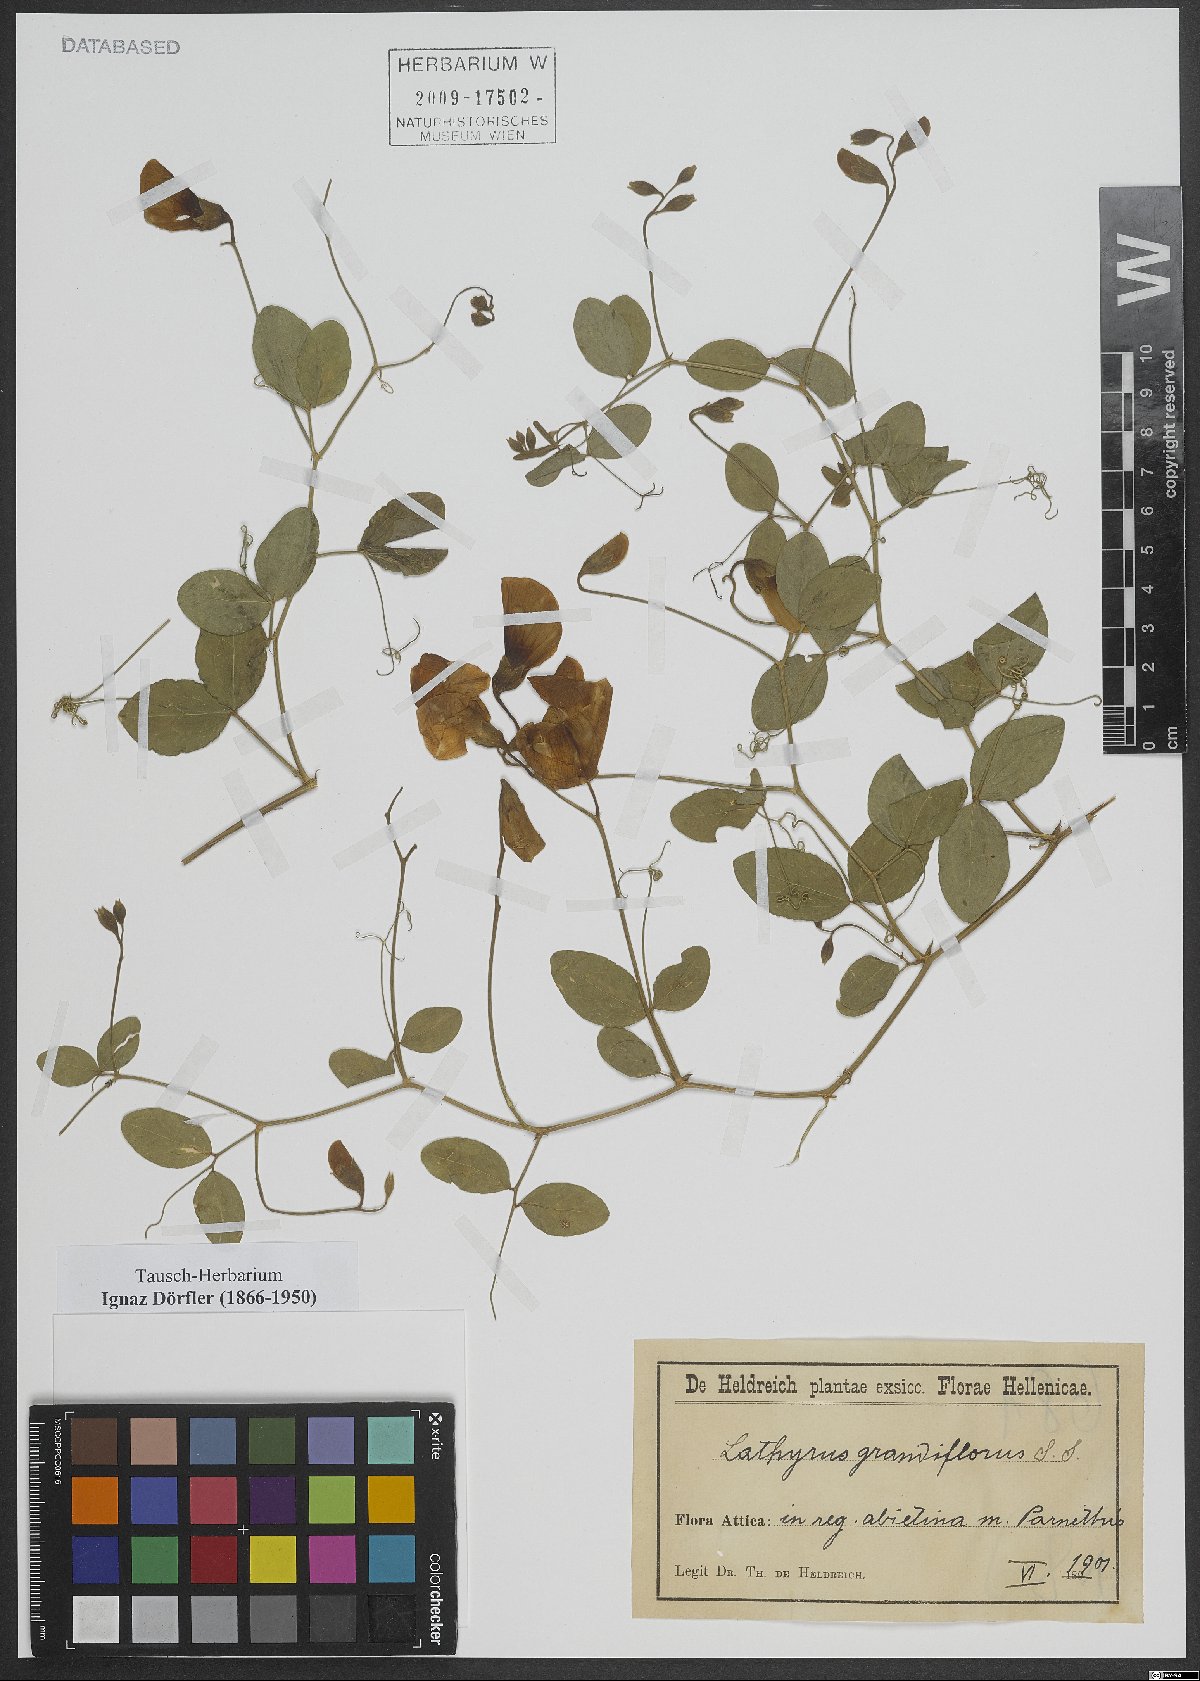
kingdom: Plantae
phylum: Tracheophyta
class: Magnoliopsida
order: Fabales
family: Fabaceae
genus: Lathyrus
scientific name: Lathyrus grandiflorus
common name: Two-flowered everlasting-pea
